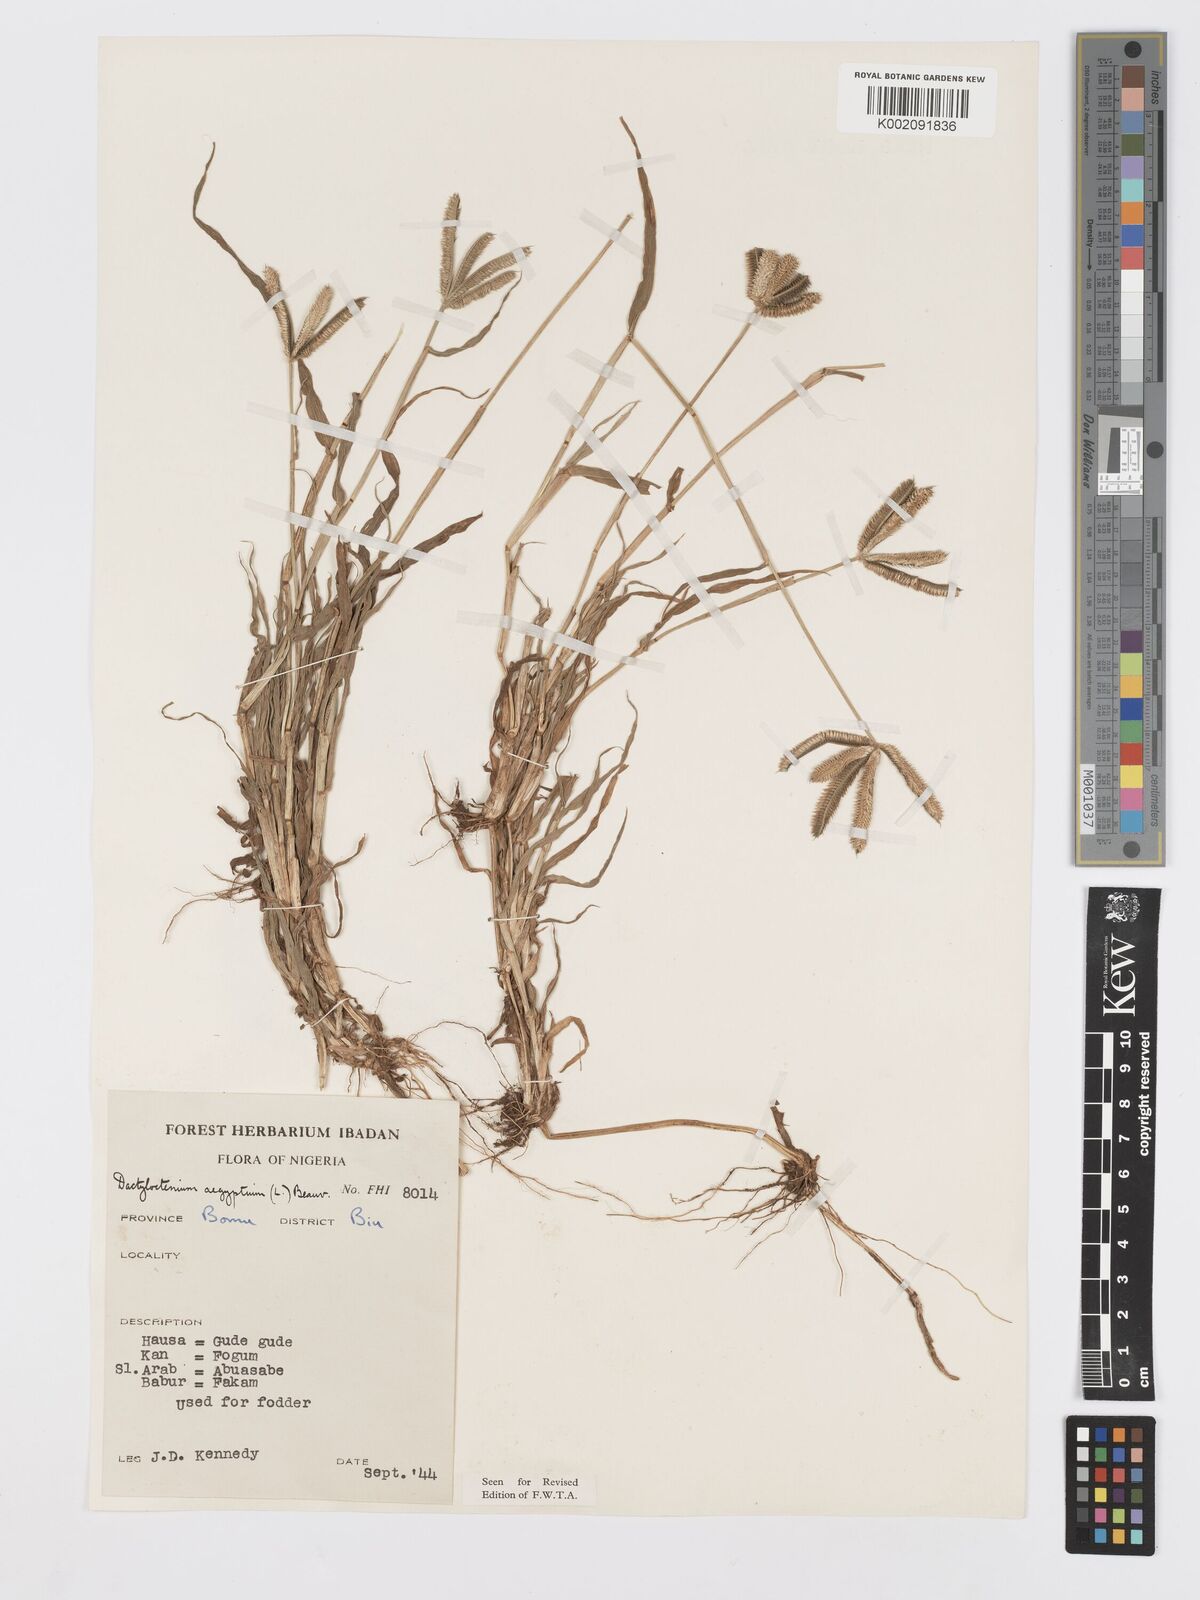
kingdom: Plantae
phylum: Tracheophyta
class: Liliopsida
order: Poales
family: Poaceae
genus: Dactyloctenium
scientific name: Dactyloctenium aegyptium
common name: Egyptian grass
